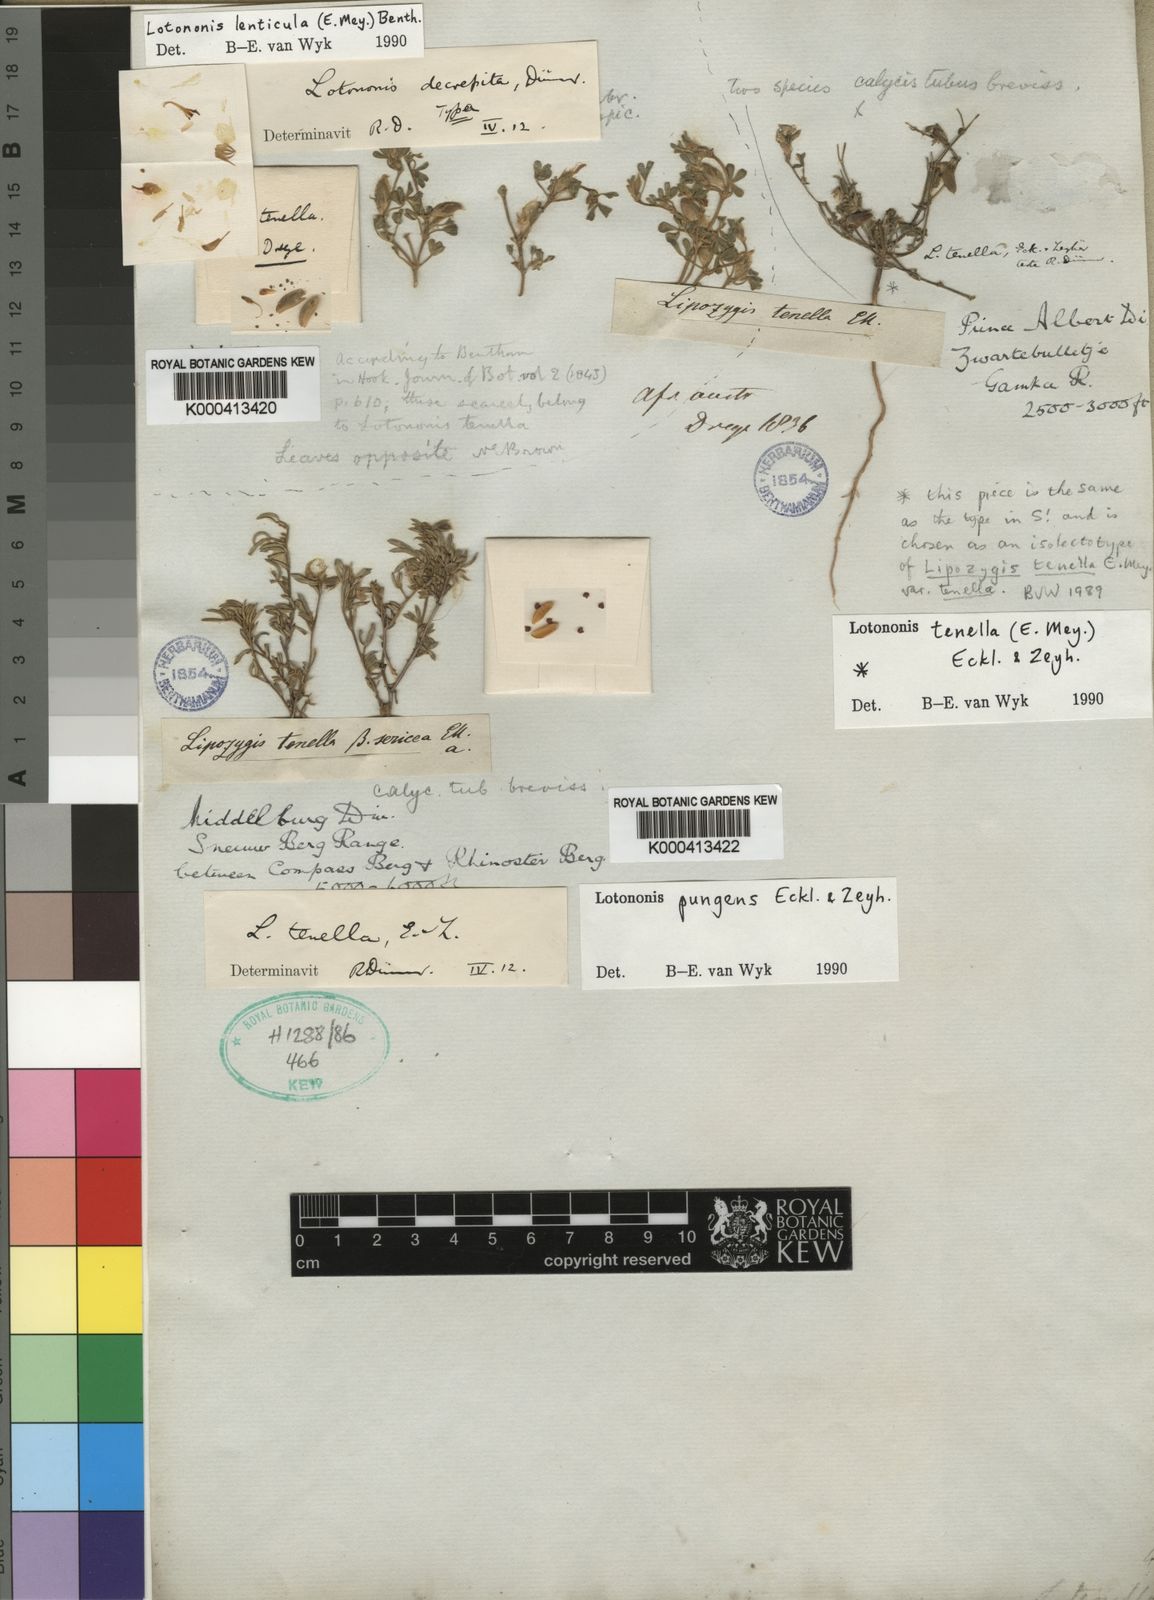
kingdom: Plantae
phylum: Tracheophyta
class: Magnoliopsida
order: Fabales
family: Fabaceae
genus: Lotononis
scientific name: Lotononis pungens
